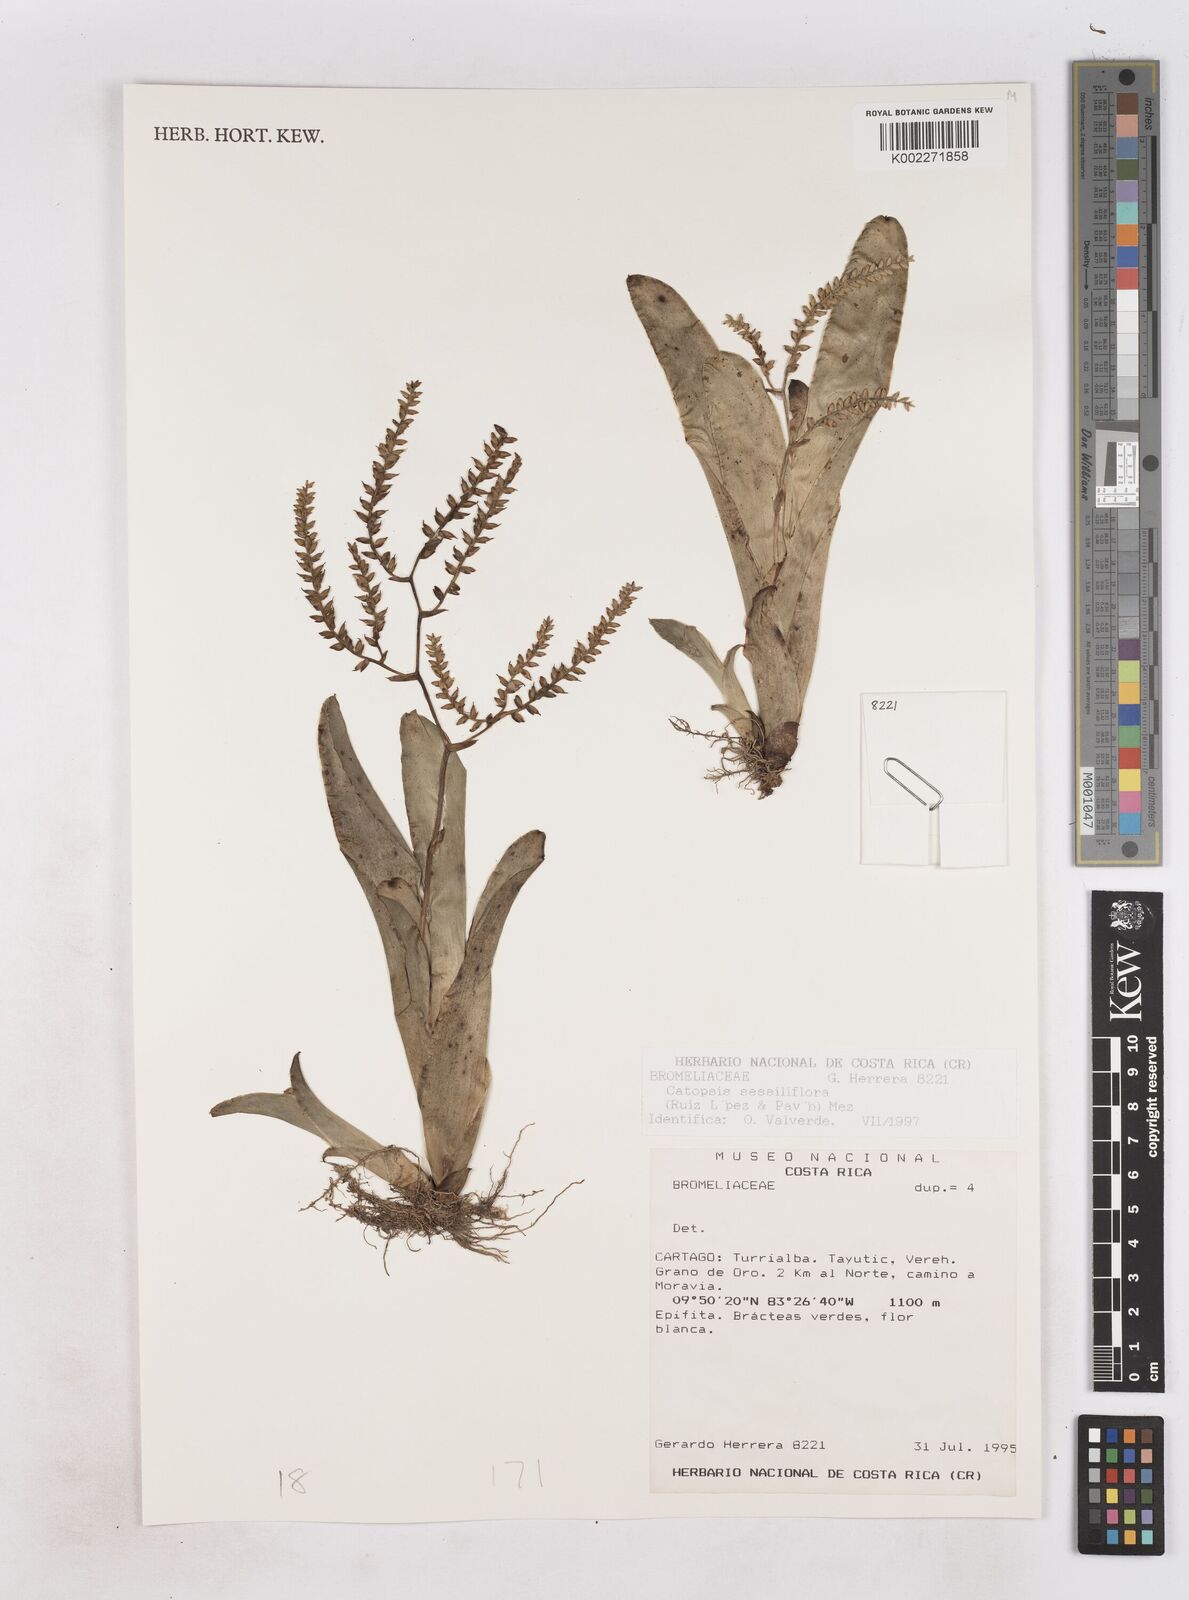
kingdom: Plantae
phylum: Tracheophyta
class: Liliopsida
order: Poales
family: Bromeliaceae
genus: Catopsis
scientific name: Catopsis sessiliflora
